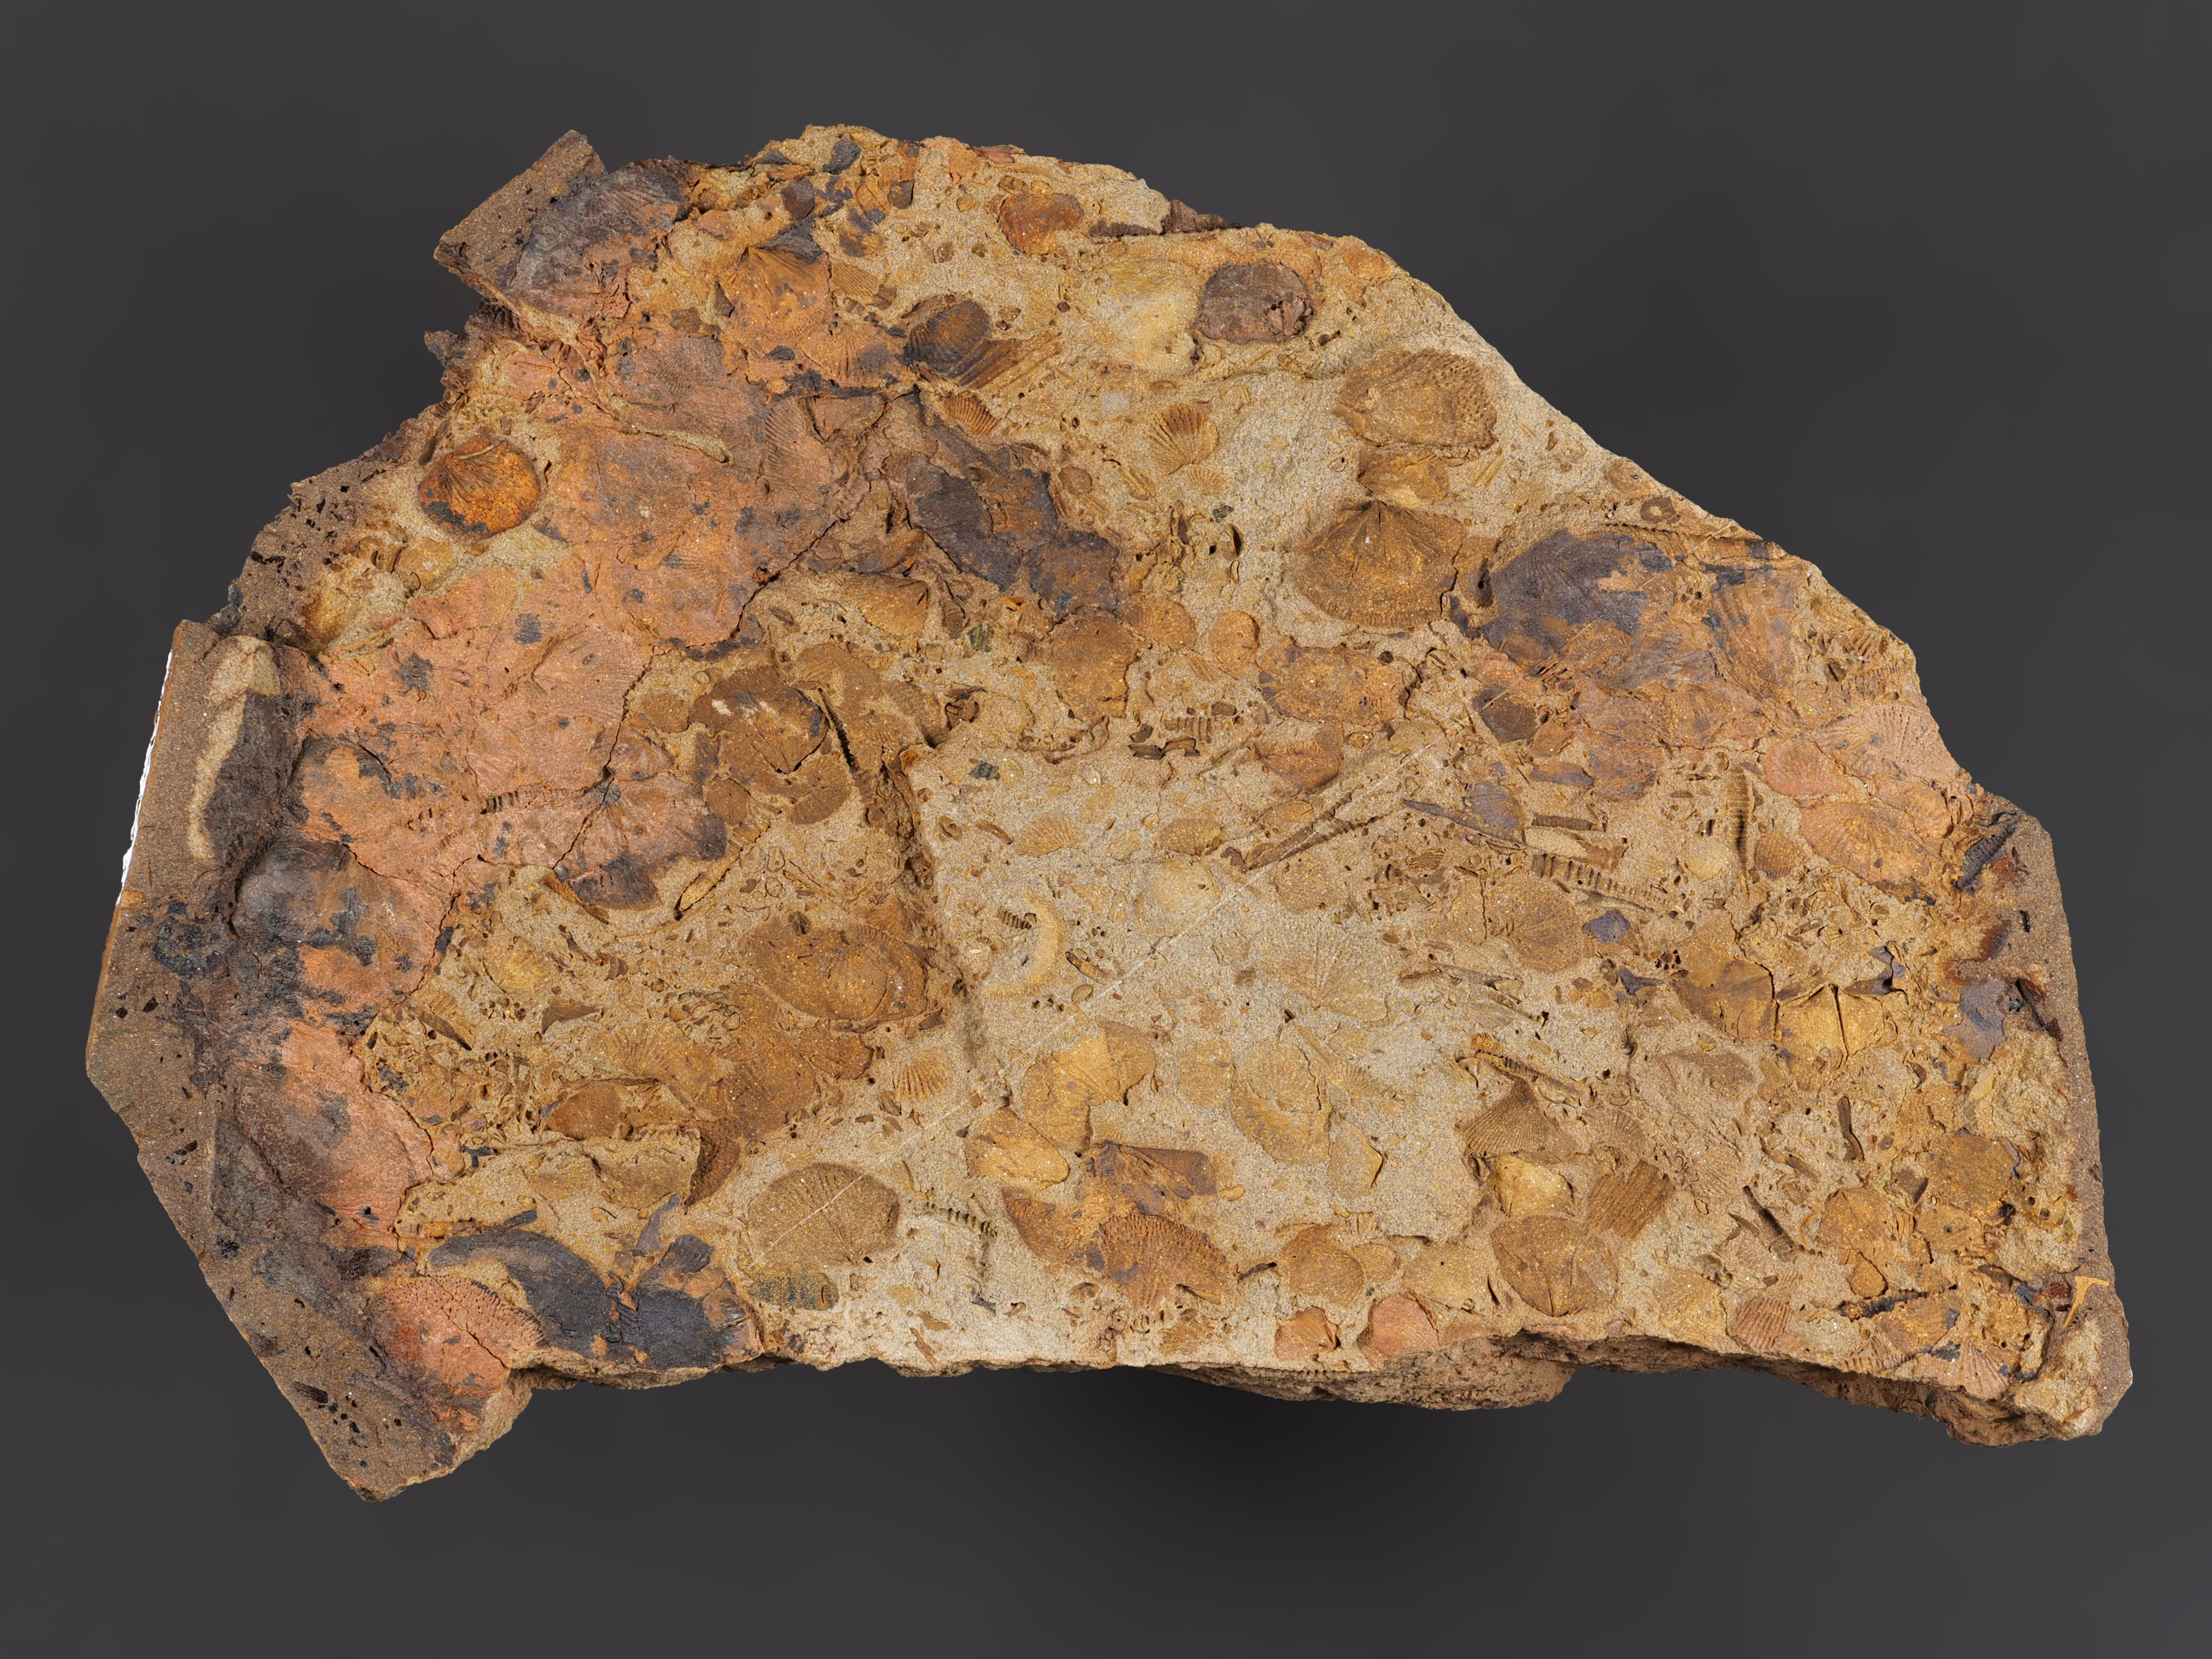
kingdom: Animalia
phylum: Arthropoda
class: Ostracoda
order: Palaeocopida
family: Kloedeniidae
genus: Carinokloedenia
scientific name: Carinokloedenia
